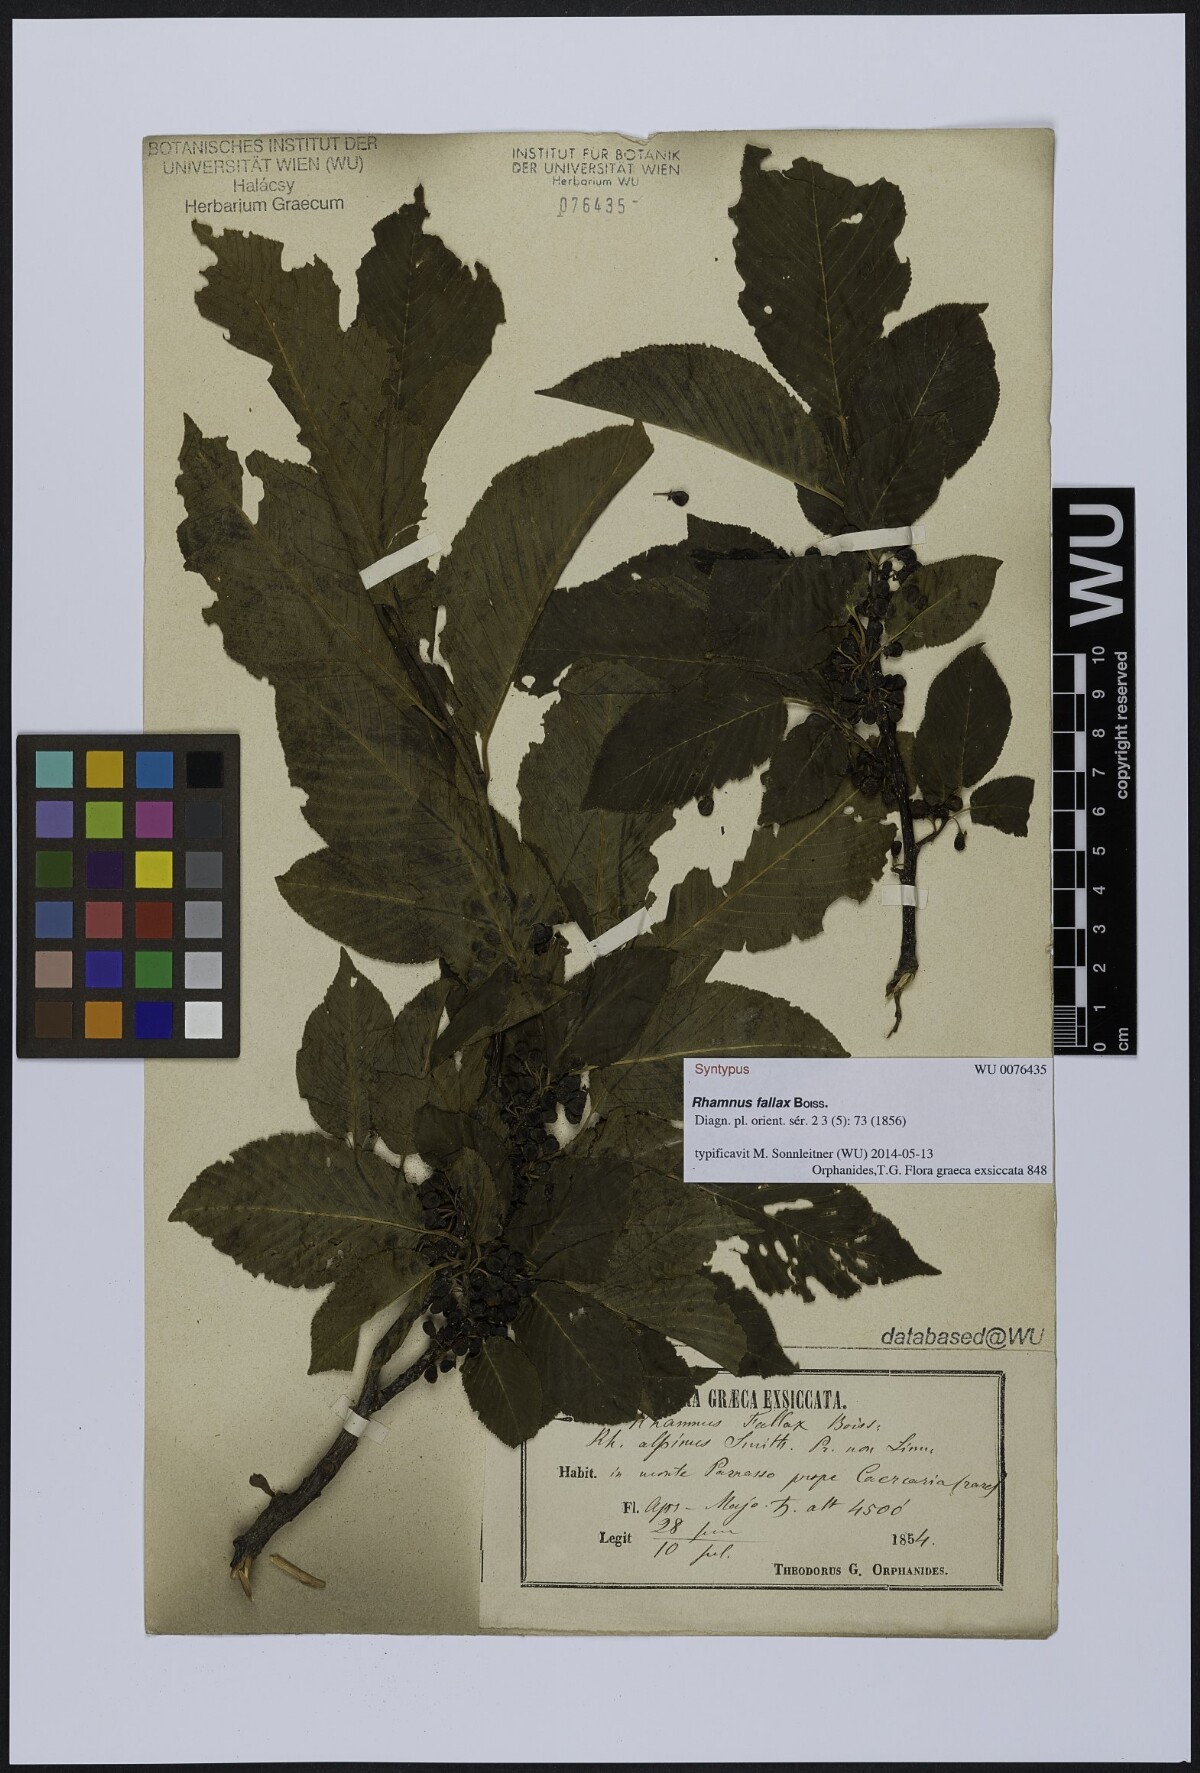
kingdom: Plantae
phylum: Tracheophyta
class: Magnoliopsida
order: Rosales
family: Rhamnaceae
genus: Atadinus
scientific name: Atadinus fallax
